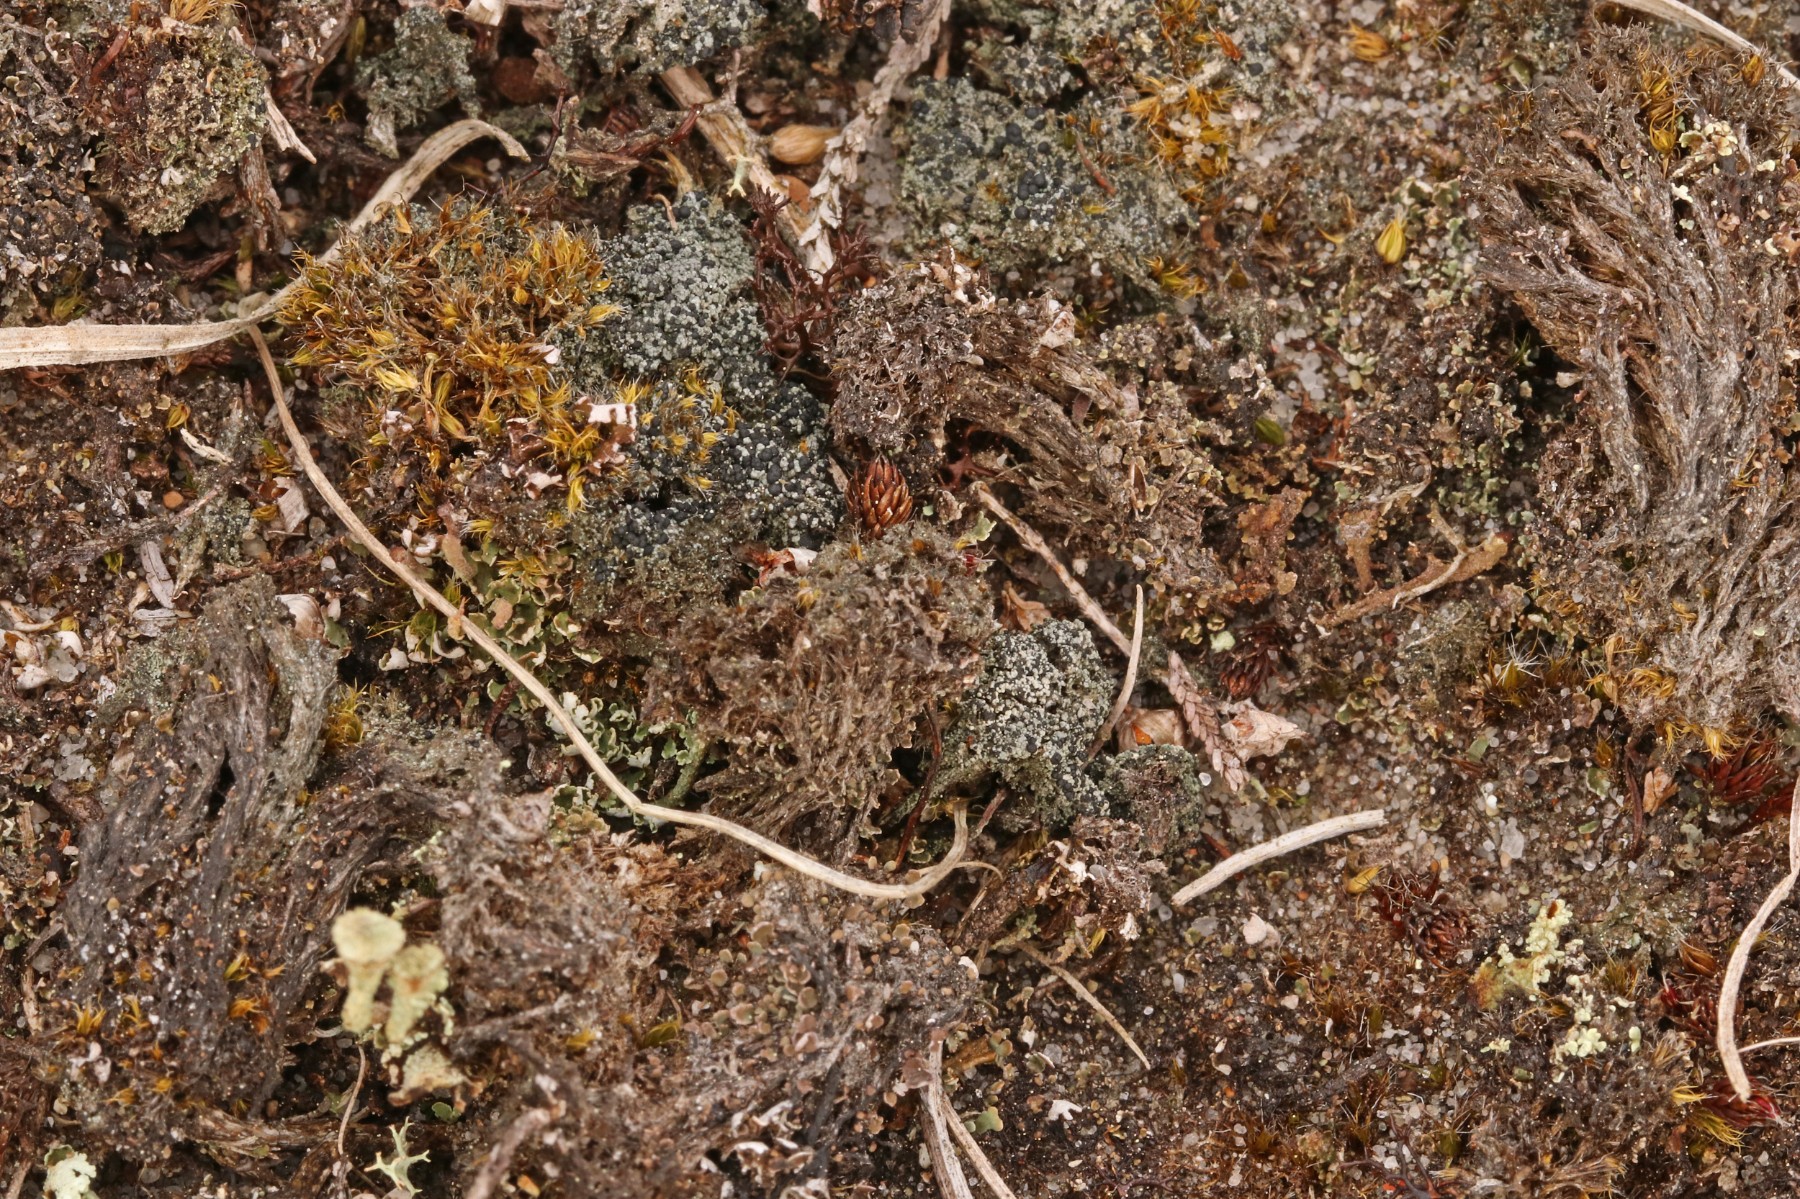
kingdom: Fungi
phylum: Ascomycota
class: Lecanoromycetes
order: Lecanorales
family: Byssolomataceae
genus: Micarea
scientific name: Micarea lignaria
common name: tørve-knaplav
